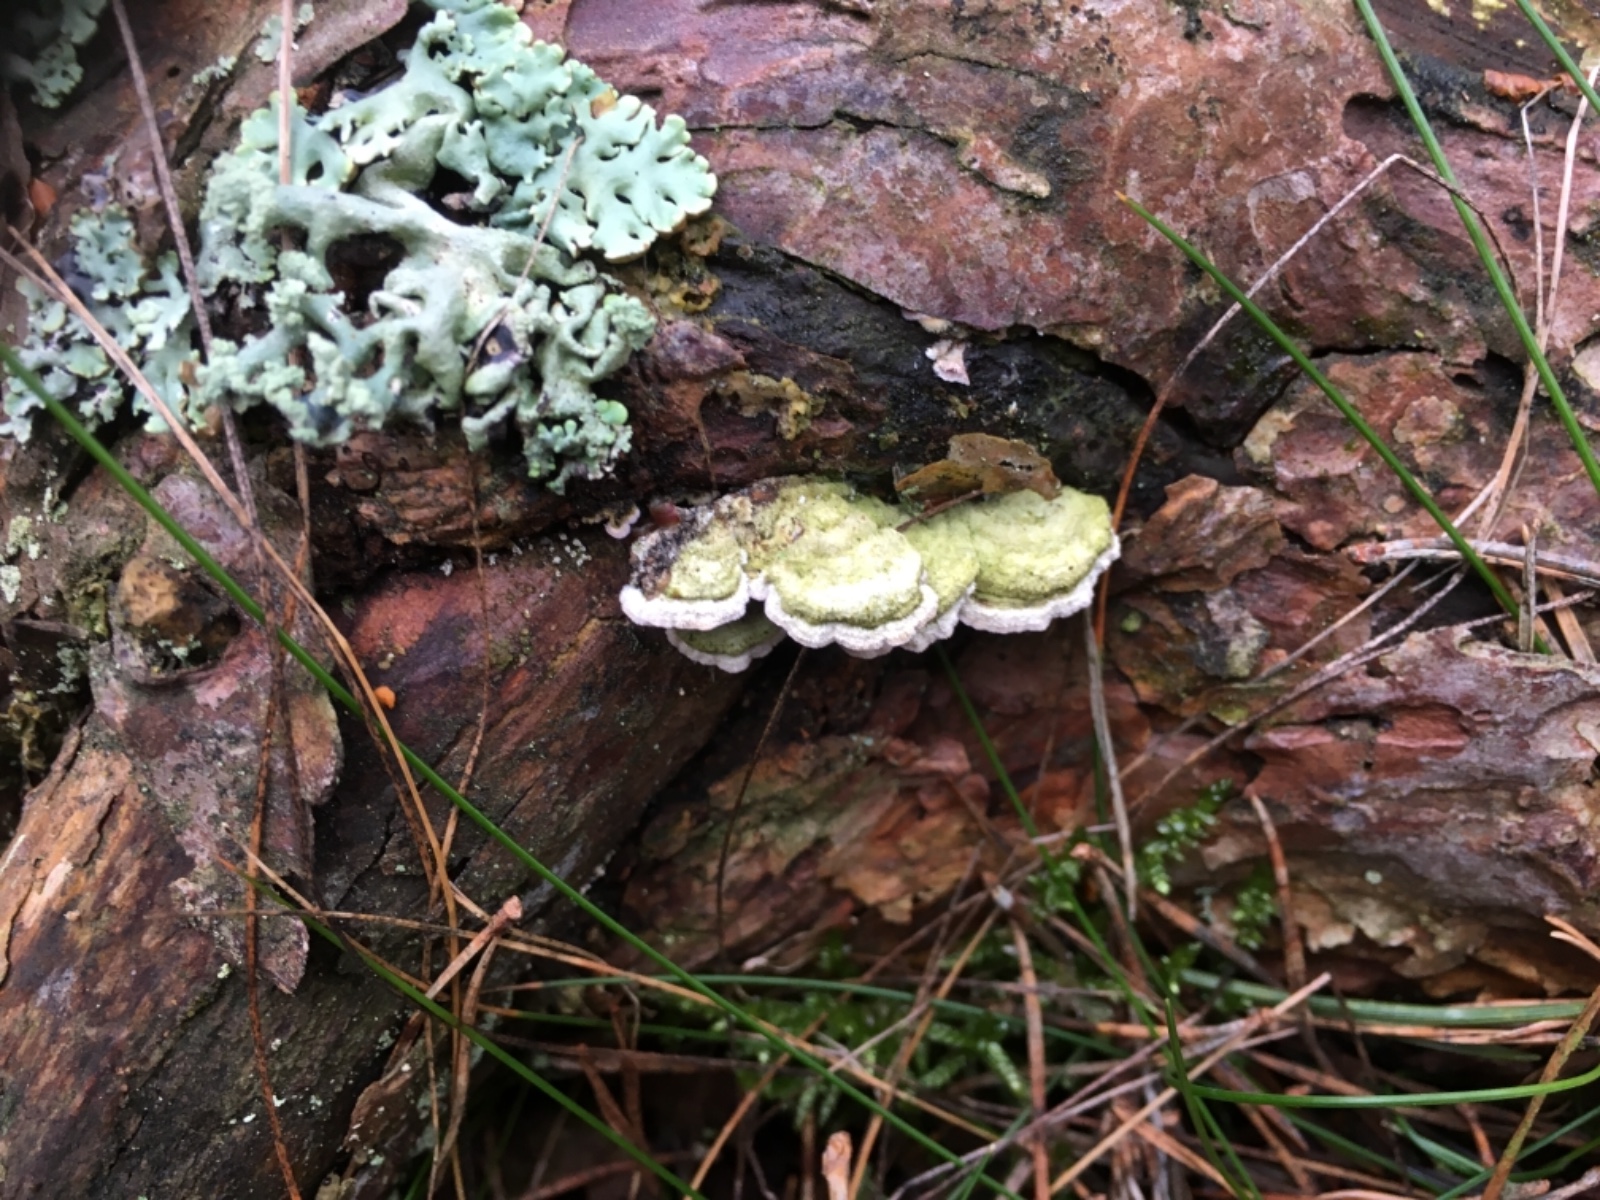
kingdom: Fungi
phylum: Basidiomycota
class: Agaricomycetes
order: Hymenochaetales
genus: Trichaptum
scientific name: Trichaptum abietinum
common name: almindelig violporesvamp
